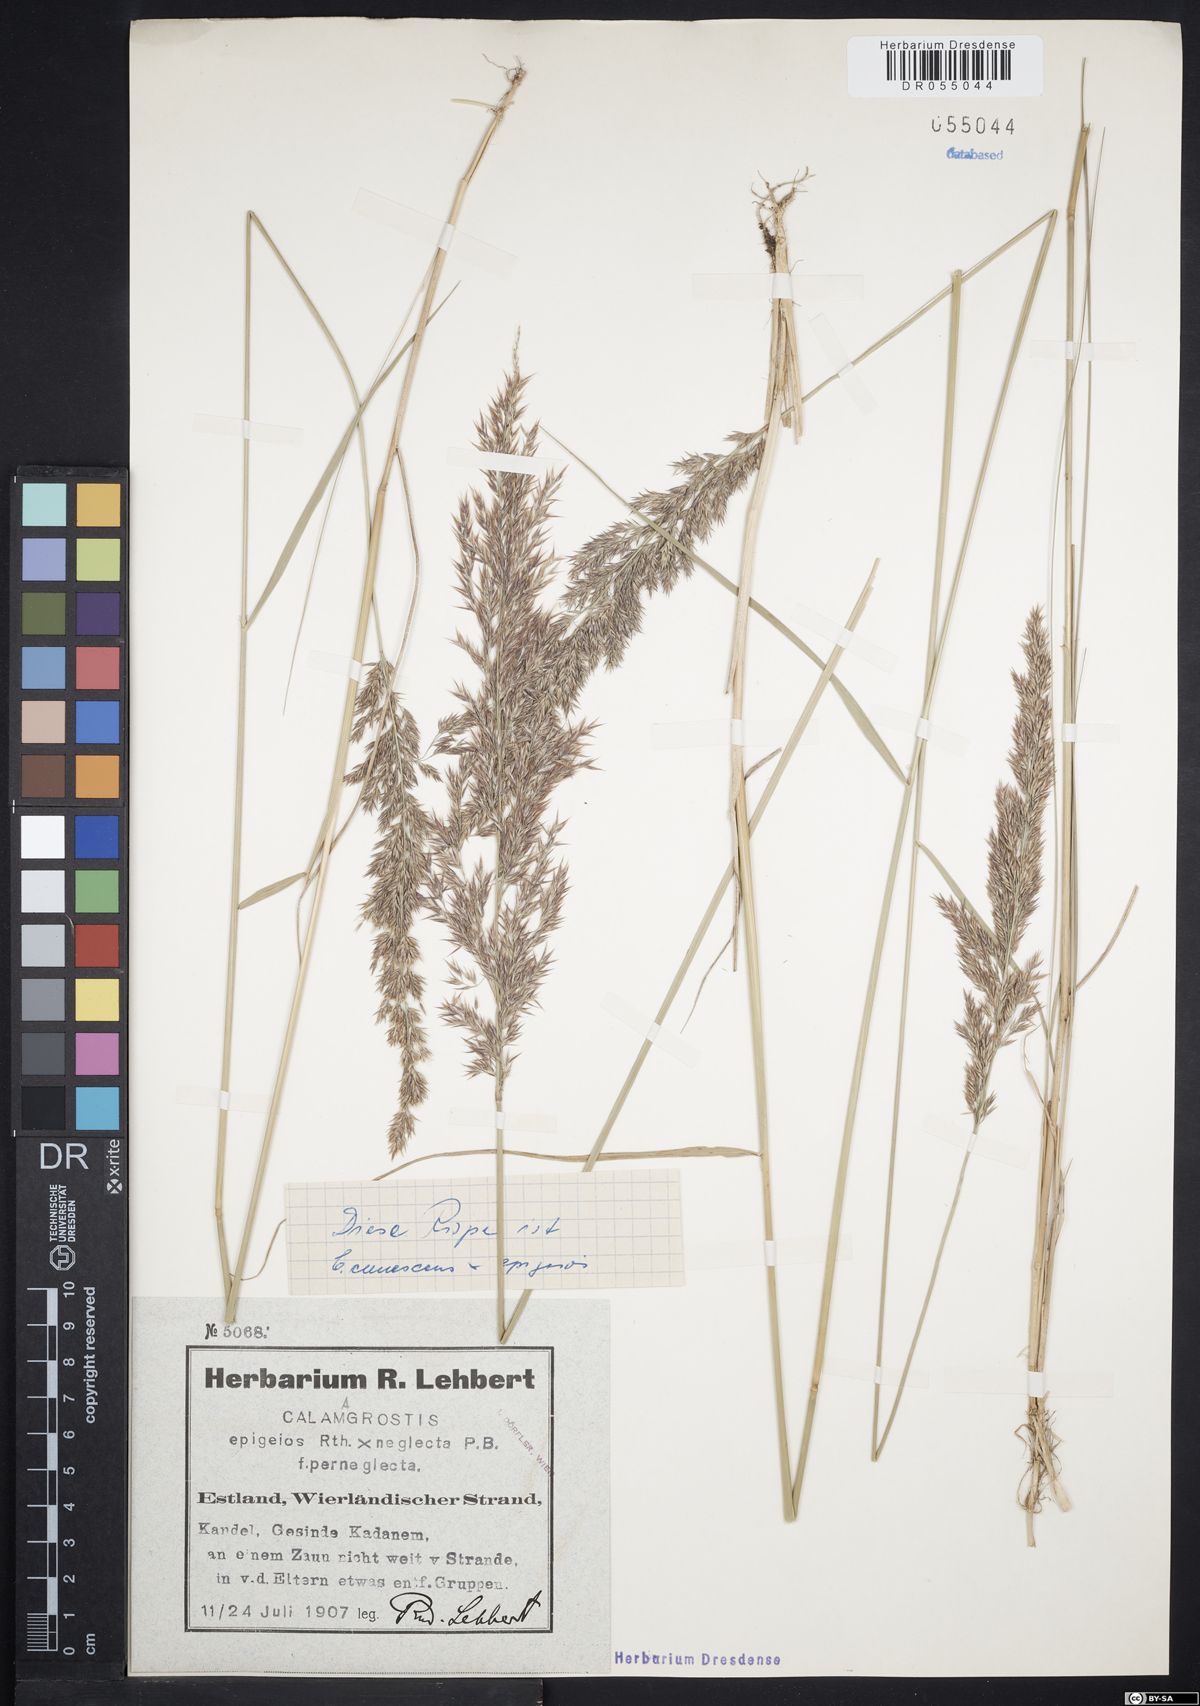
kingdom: Plantae
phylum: Tracheophyta
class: Liliopsida
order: Poales
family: Poaceae
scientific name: Poaceae
